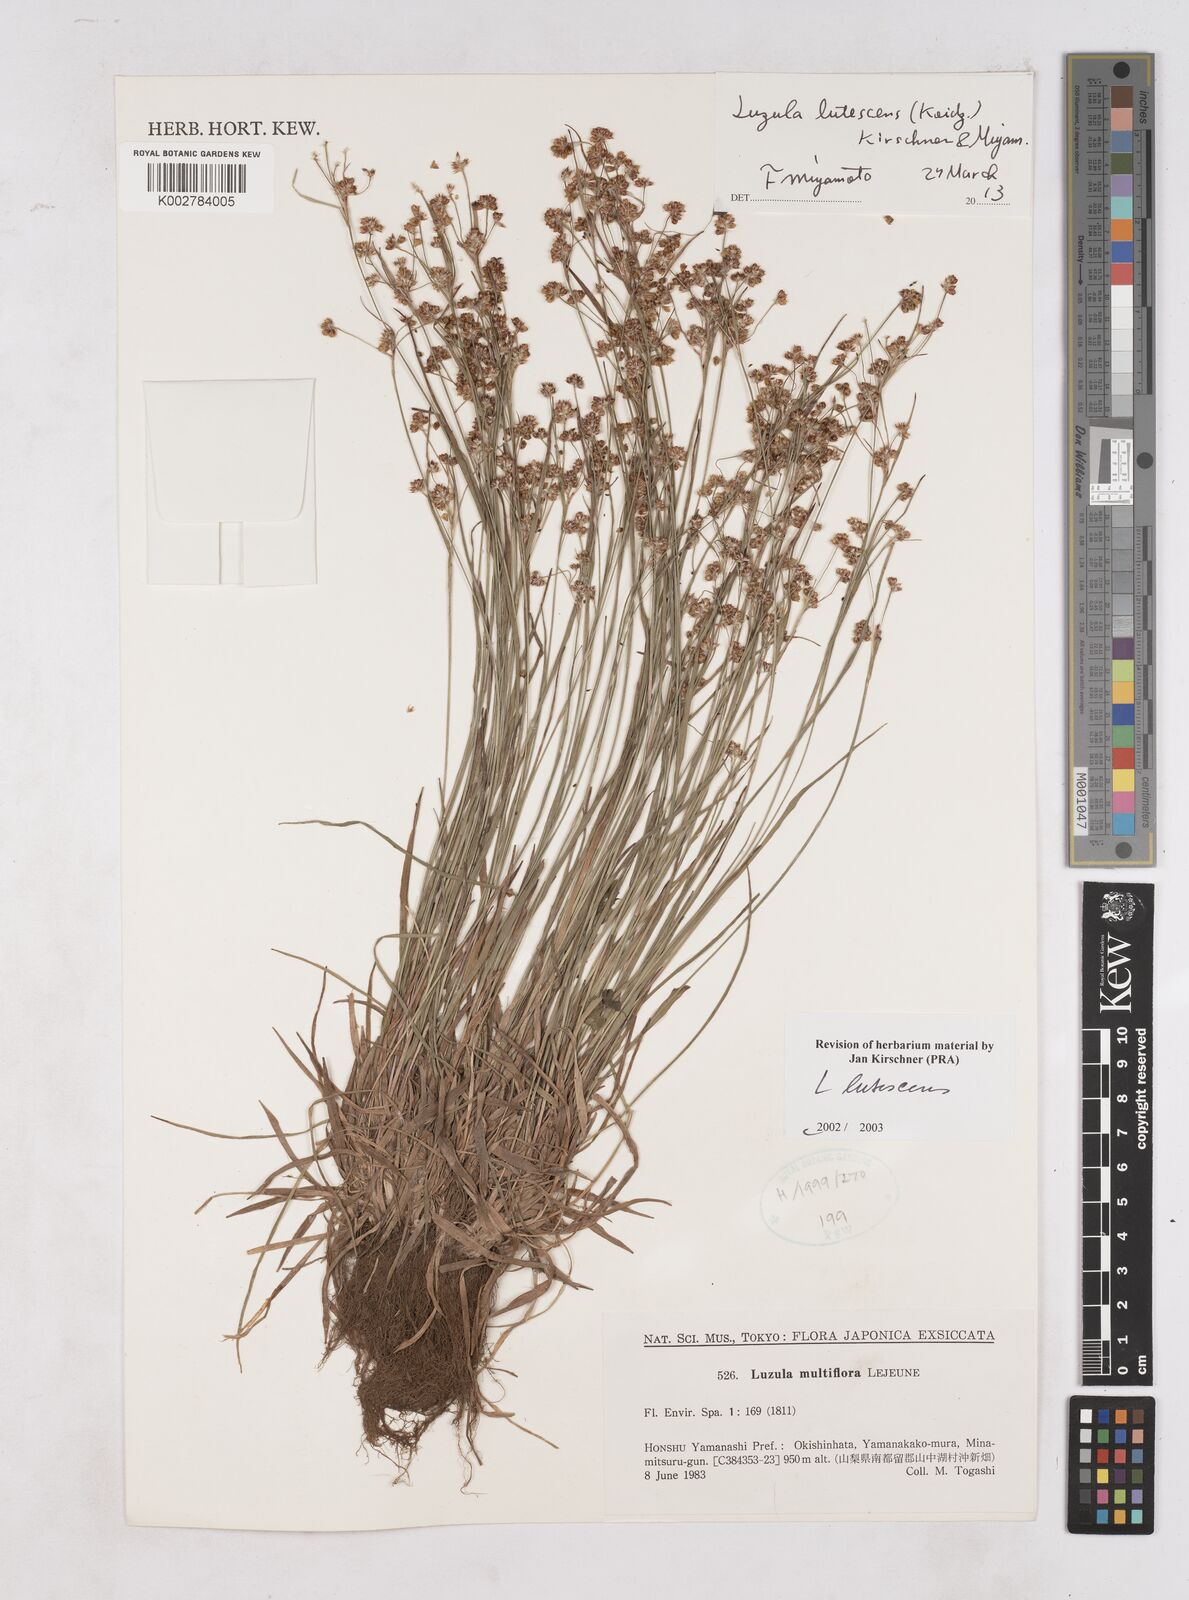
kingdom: Plantae
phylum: Tracheophyta
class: Liliopsida
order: Poales
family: Juncaceae
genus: Luzula
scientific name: Luzula lutescens
